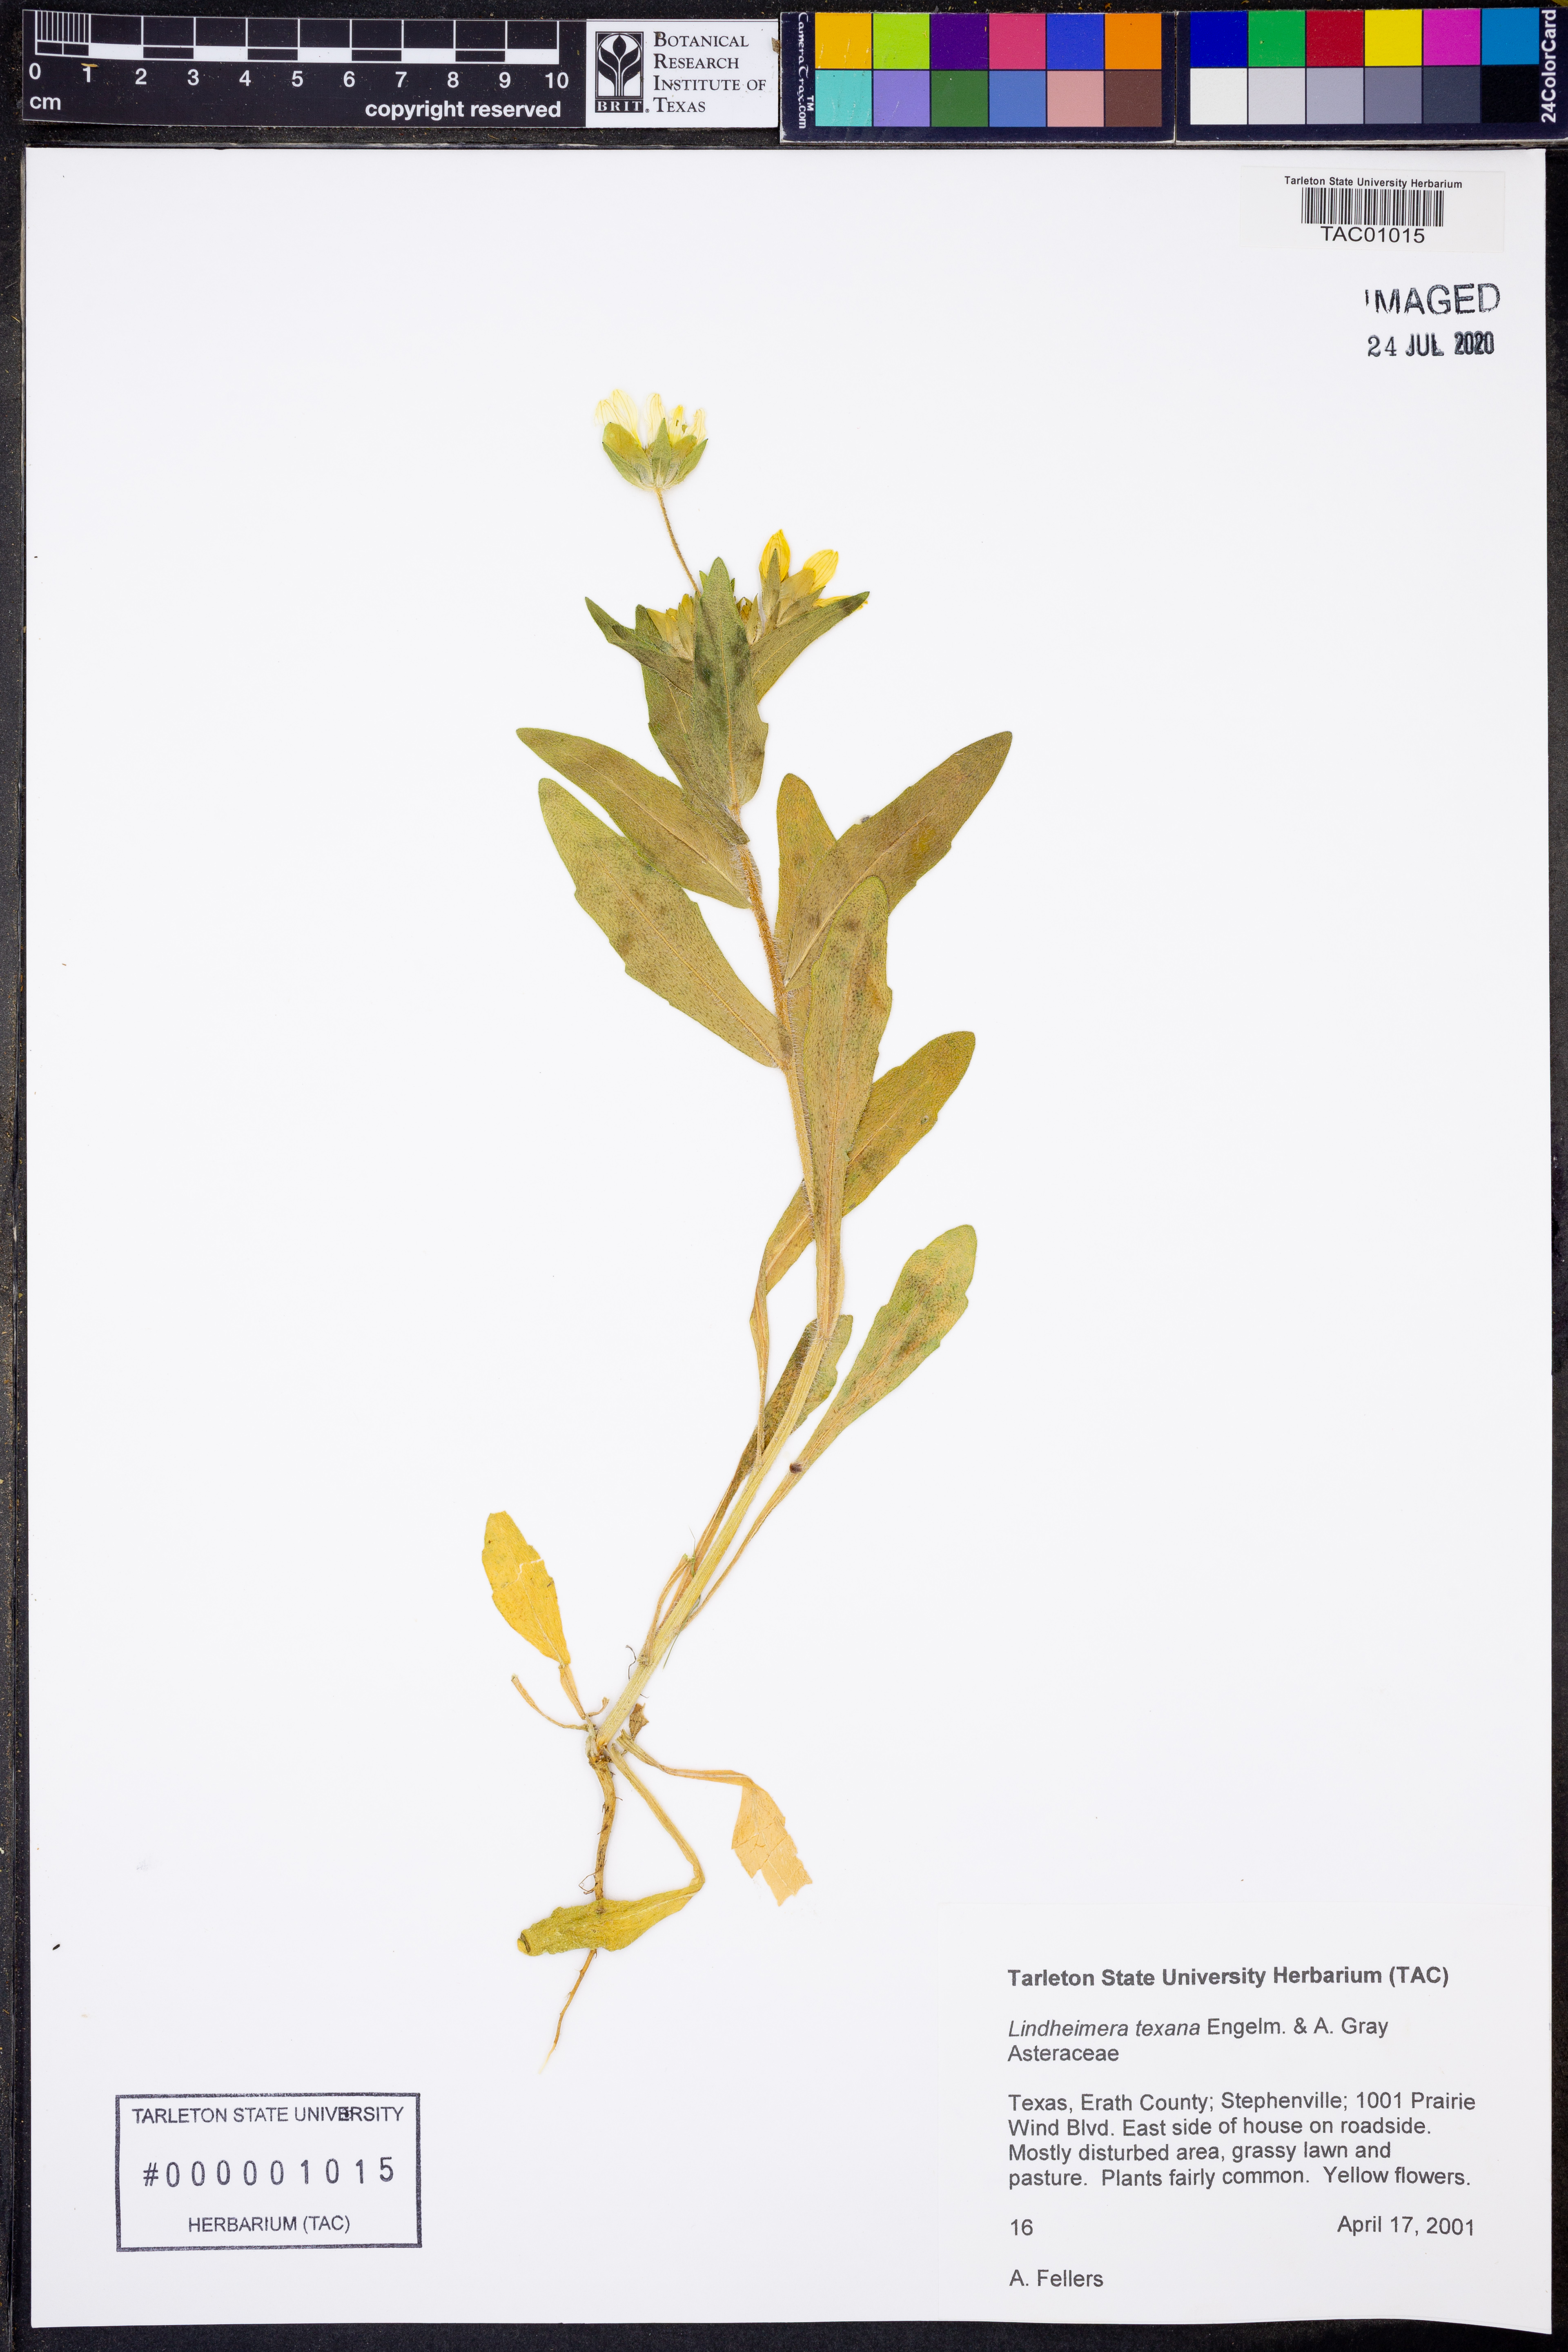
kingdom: Plantae
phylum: Tracheophyta
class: Magnoliopsida
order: Asterales
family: Asteraceae
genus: Lindheimera
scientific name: Lindheimera texana
